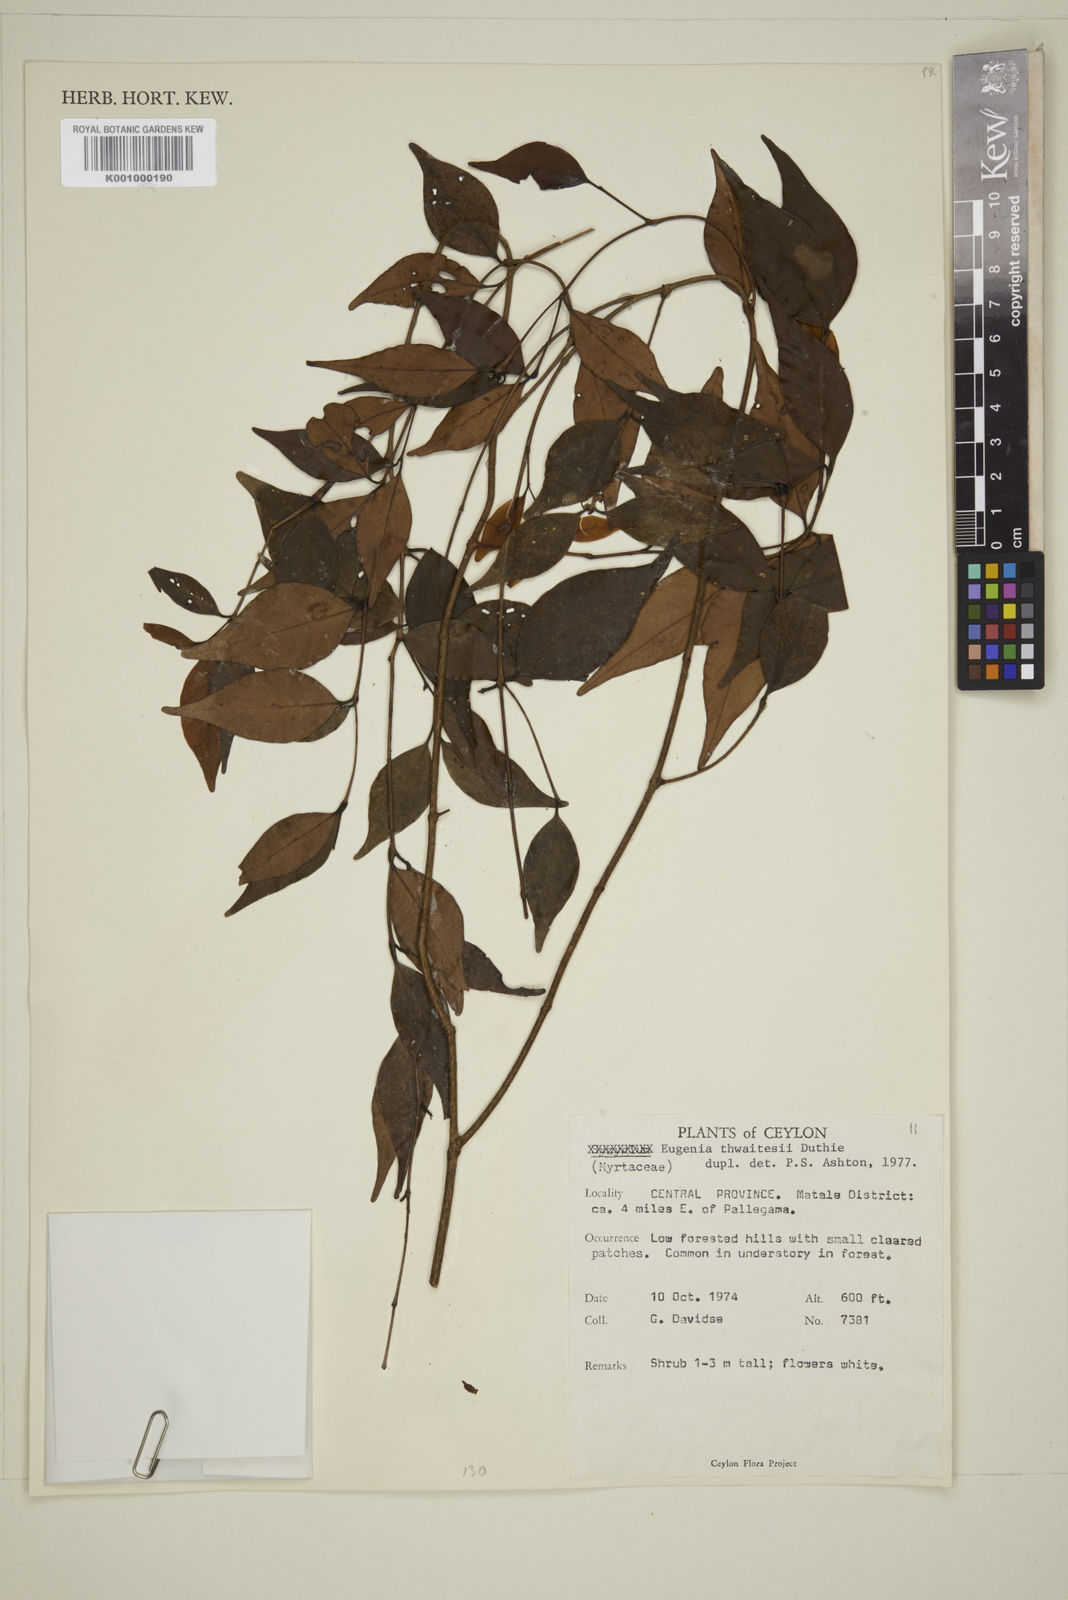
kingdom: Plantae
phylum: Tracheophyta
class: Magnoliopsida
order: Myrtales
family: Myrtaceae
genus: Eugenia
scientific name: Eugenia thwaitesii
